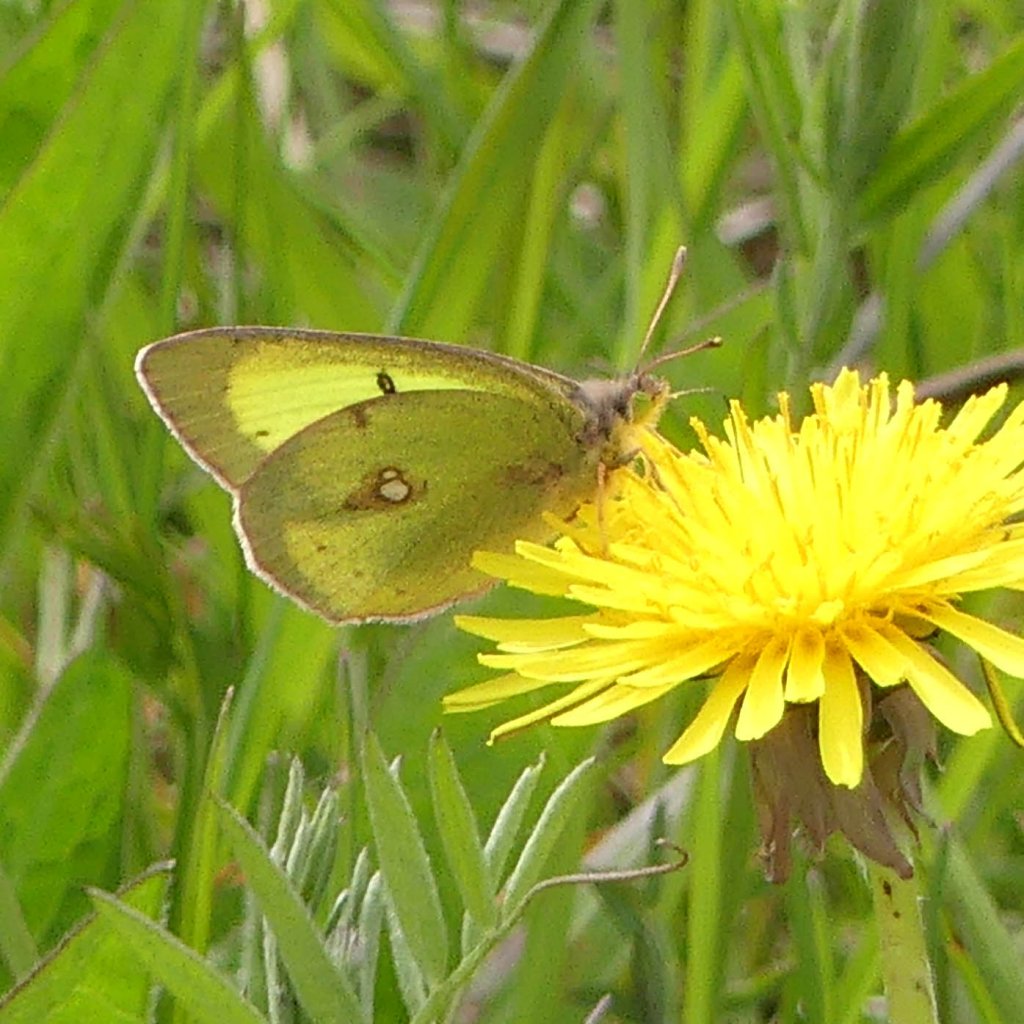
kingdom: Animalia
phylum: Arthropoda
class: Insecta
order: Lepidoptera
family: Pieridae
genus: Colias
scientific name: Colias philodice
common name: Clouded Sulphur
